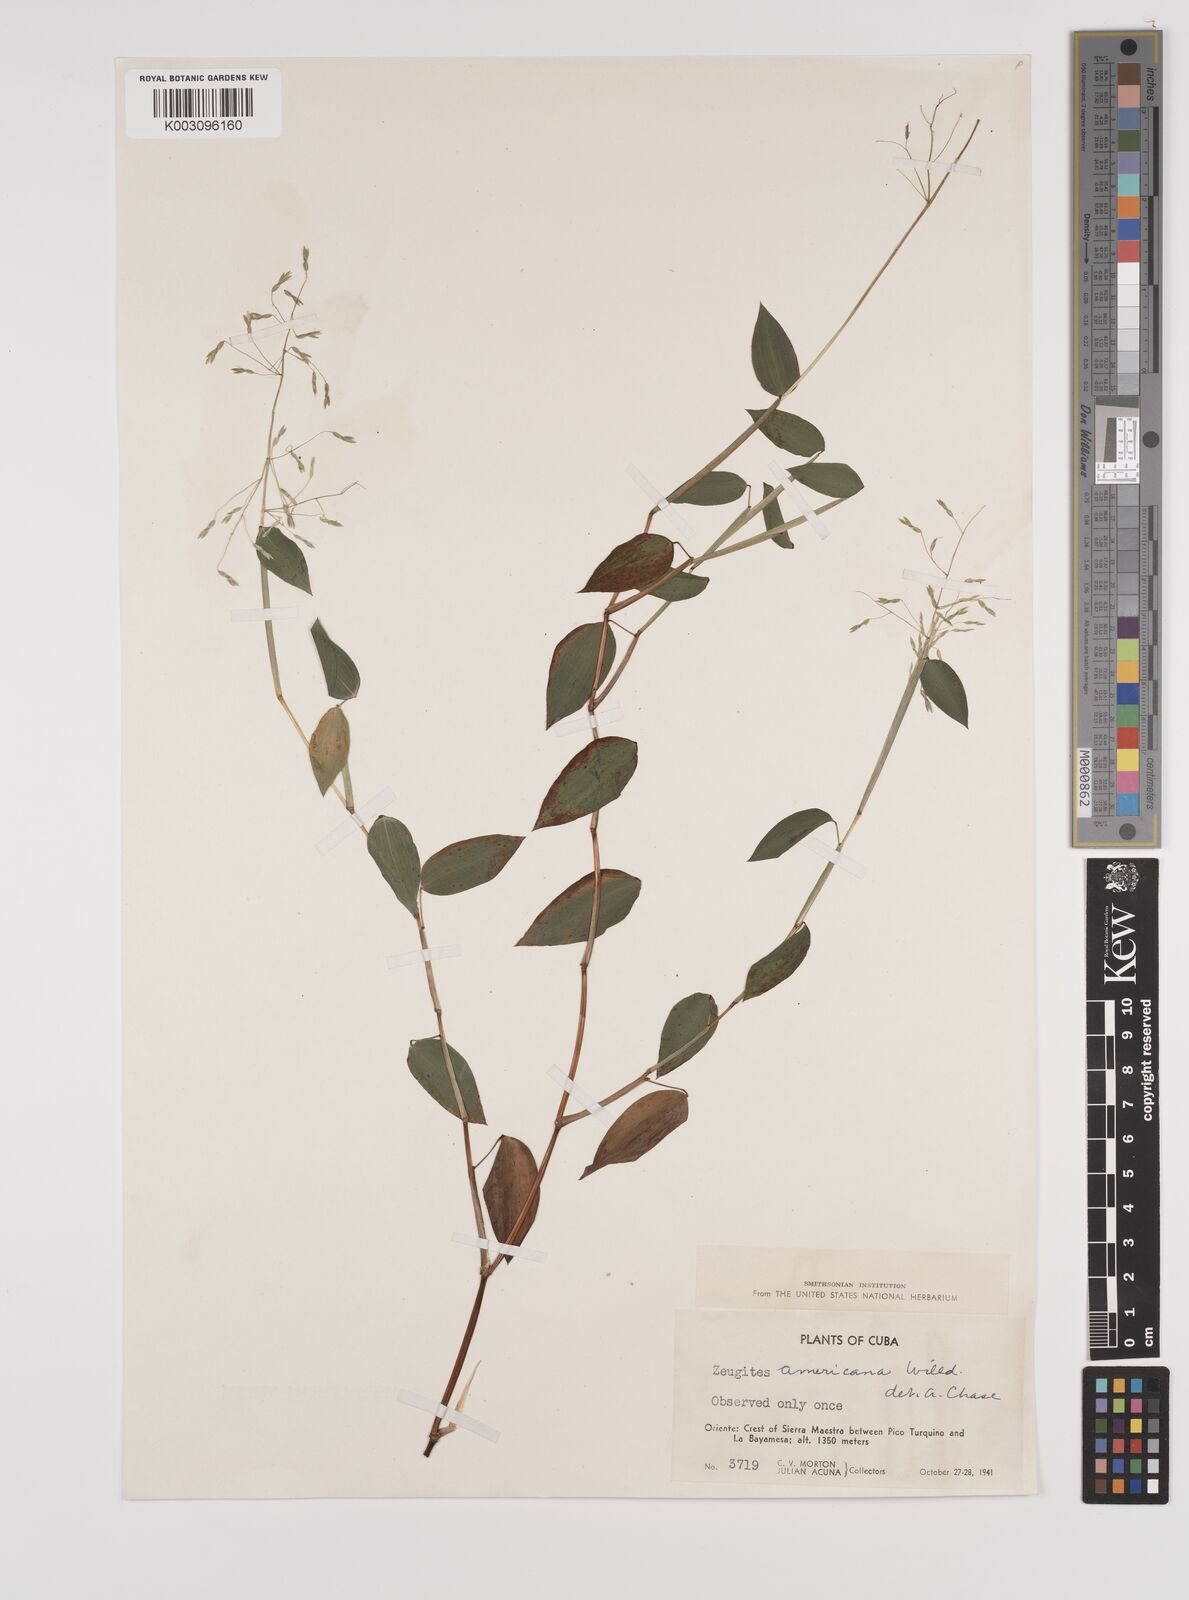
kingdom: Plantae
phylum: Tracheophyta
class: Liliopsida
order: Poales
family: Poaceae
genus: Zeugites
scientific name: Zeugites americanus
